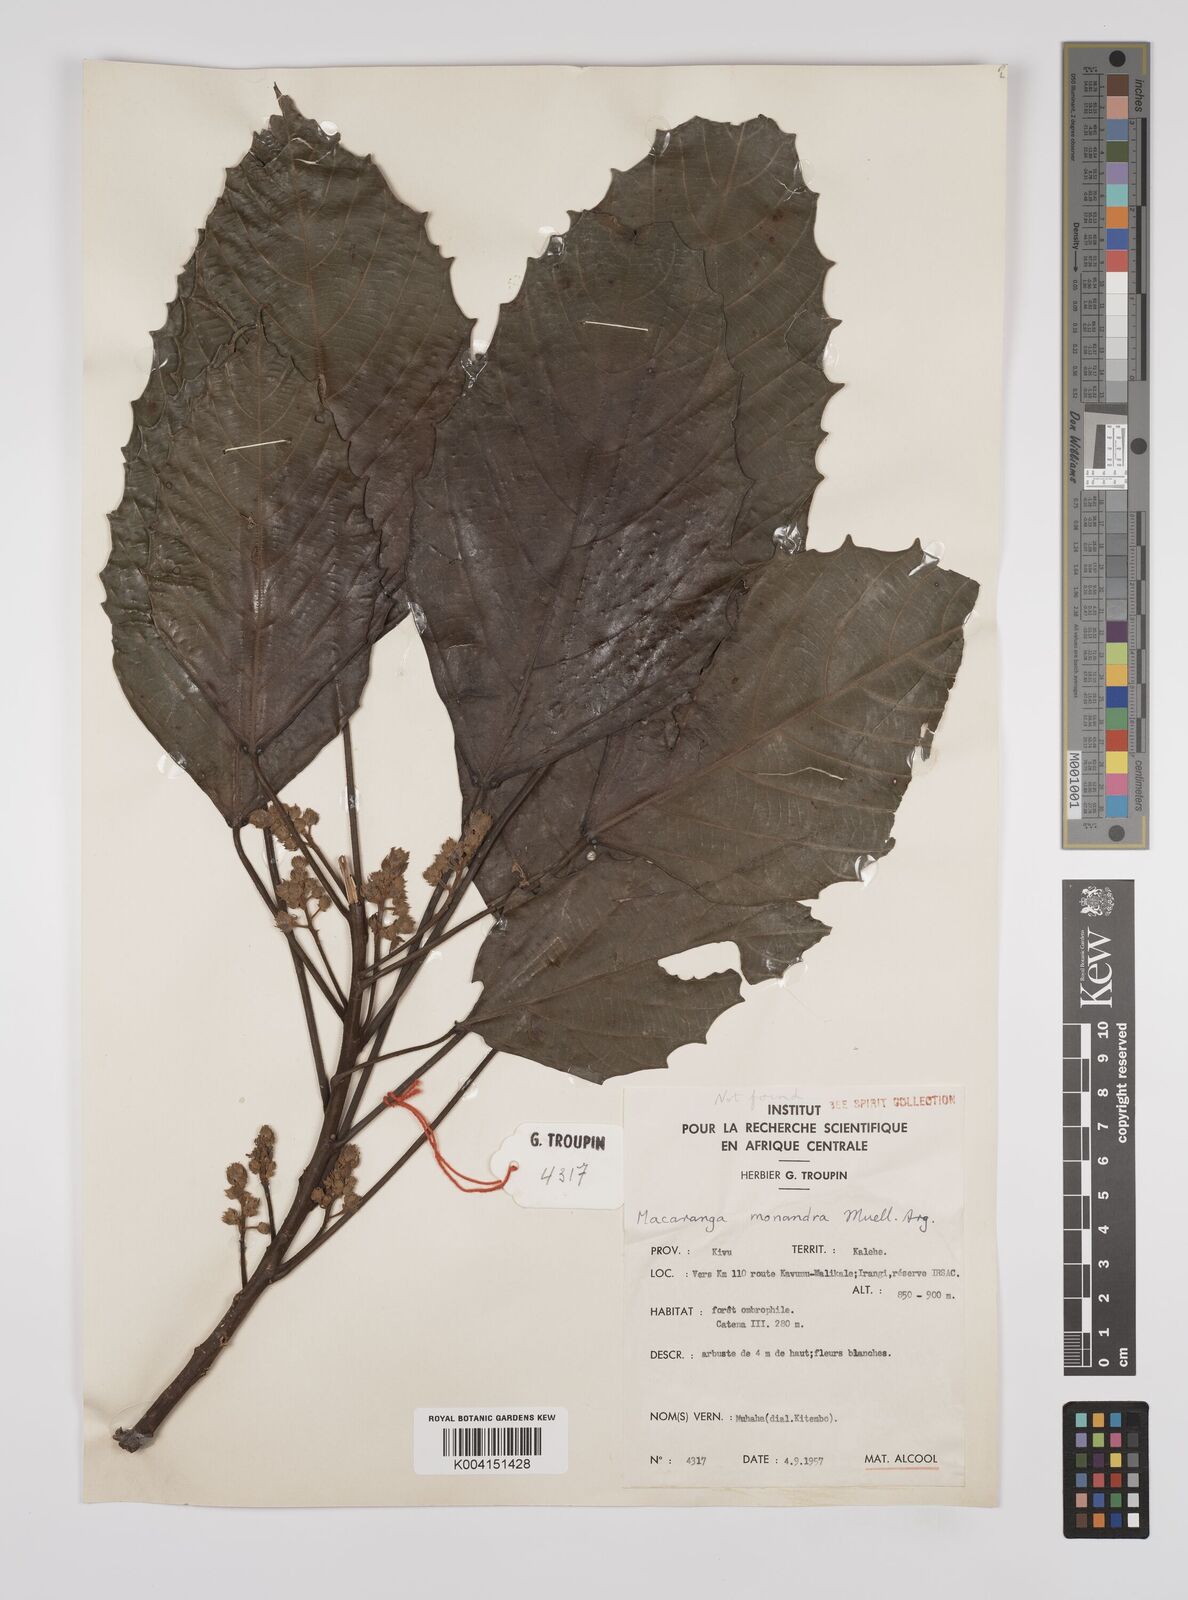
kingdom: Plantae
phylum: Tracheophyta
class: Magnoliopsida
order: Malpighiales
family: Euphorbiaceae
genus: Macaranga
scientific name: Macaranga monandra
